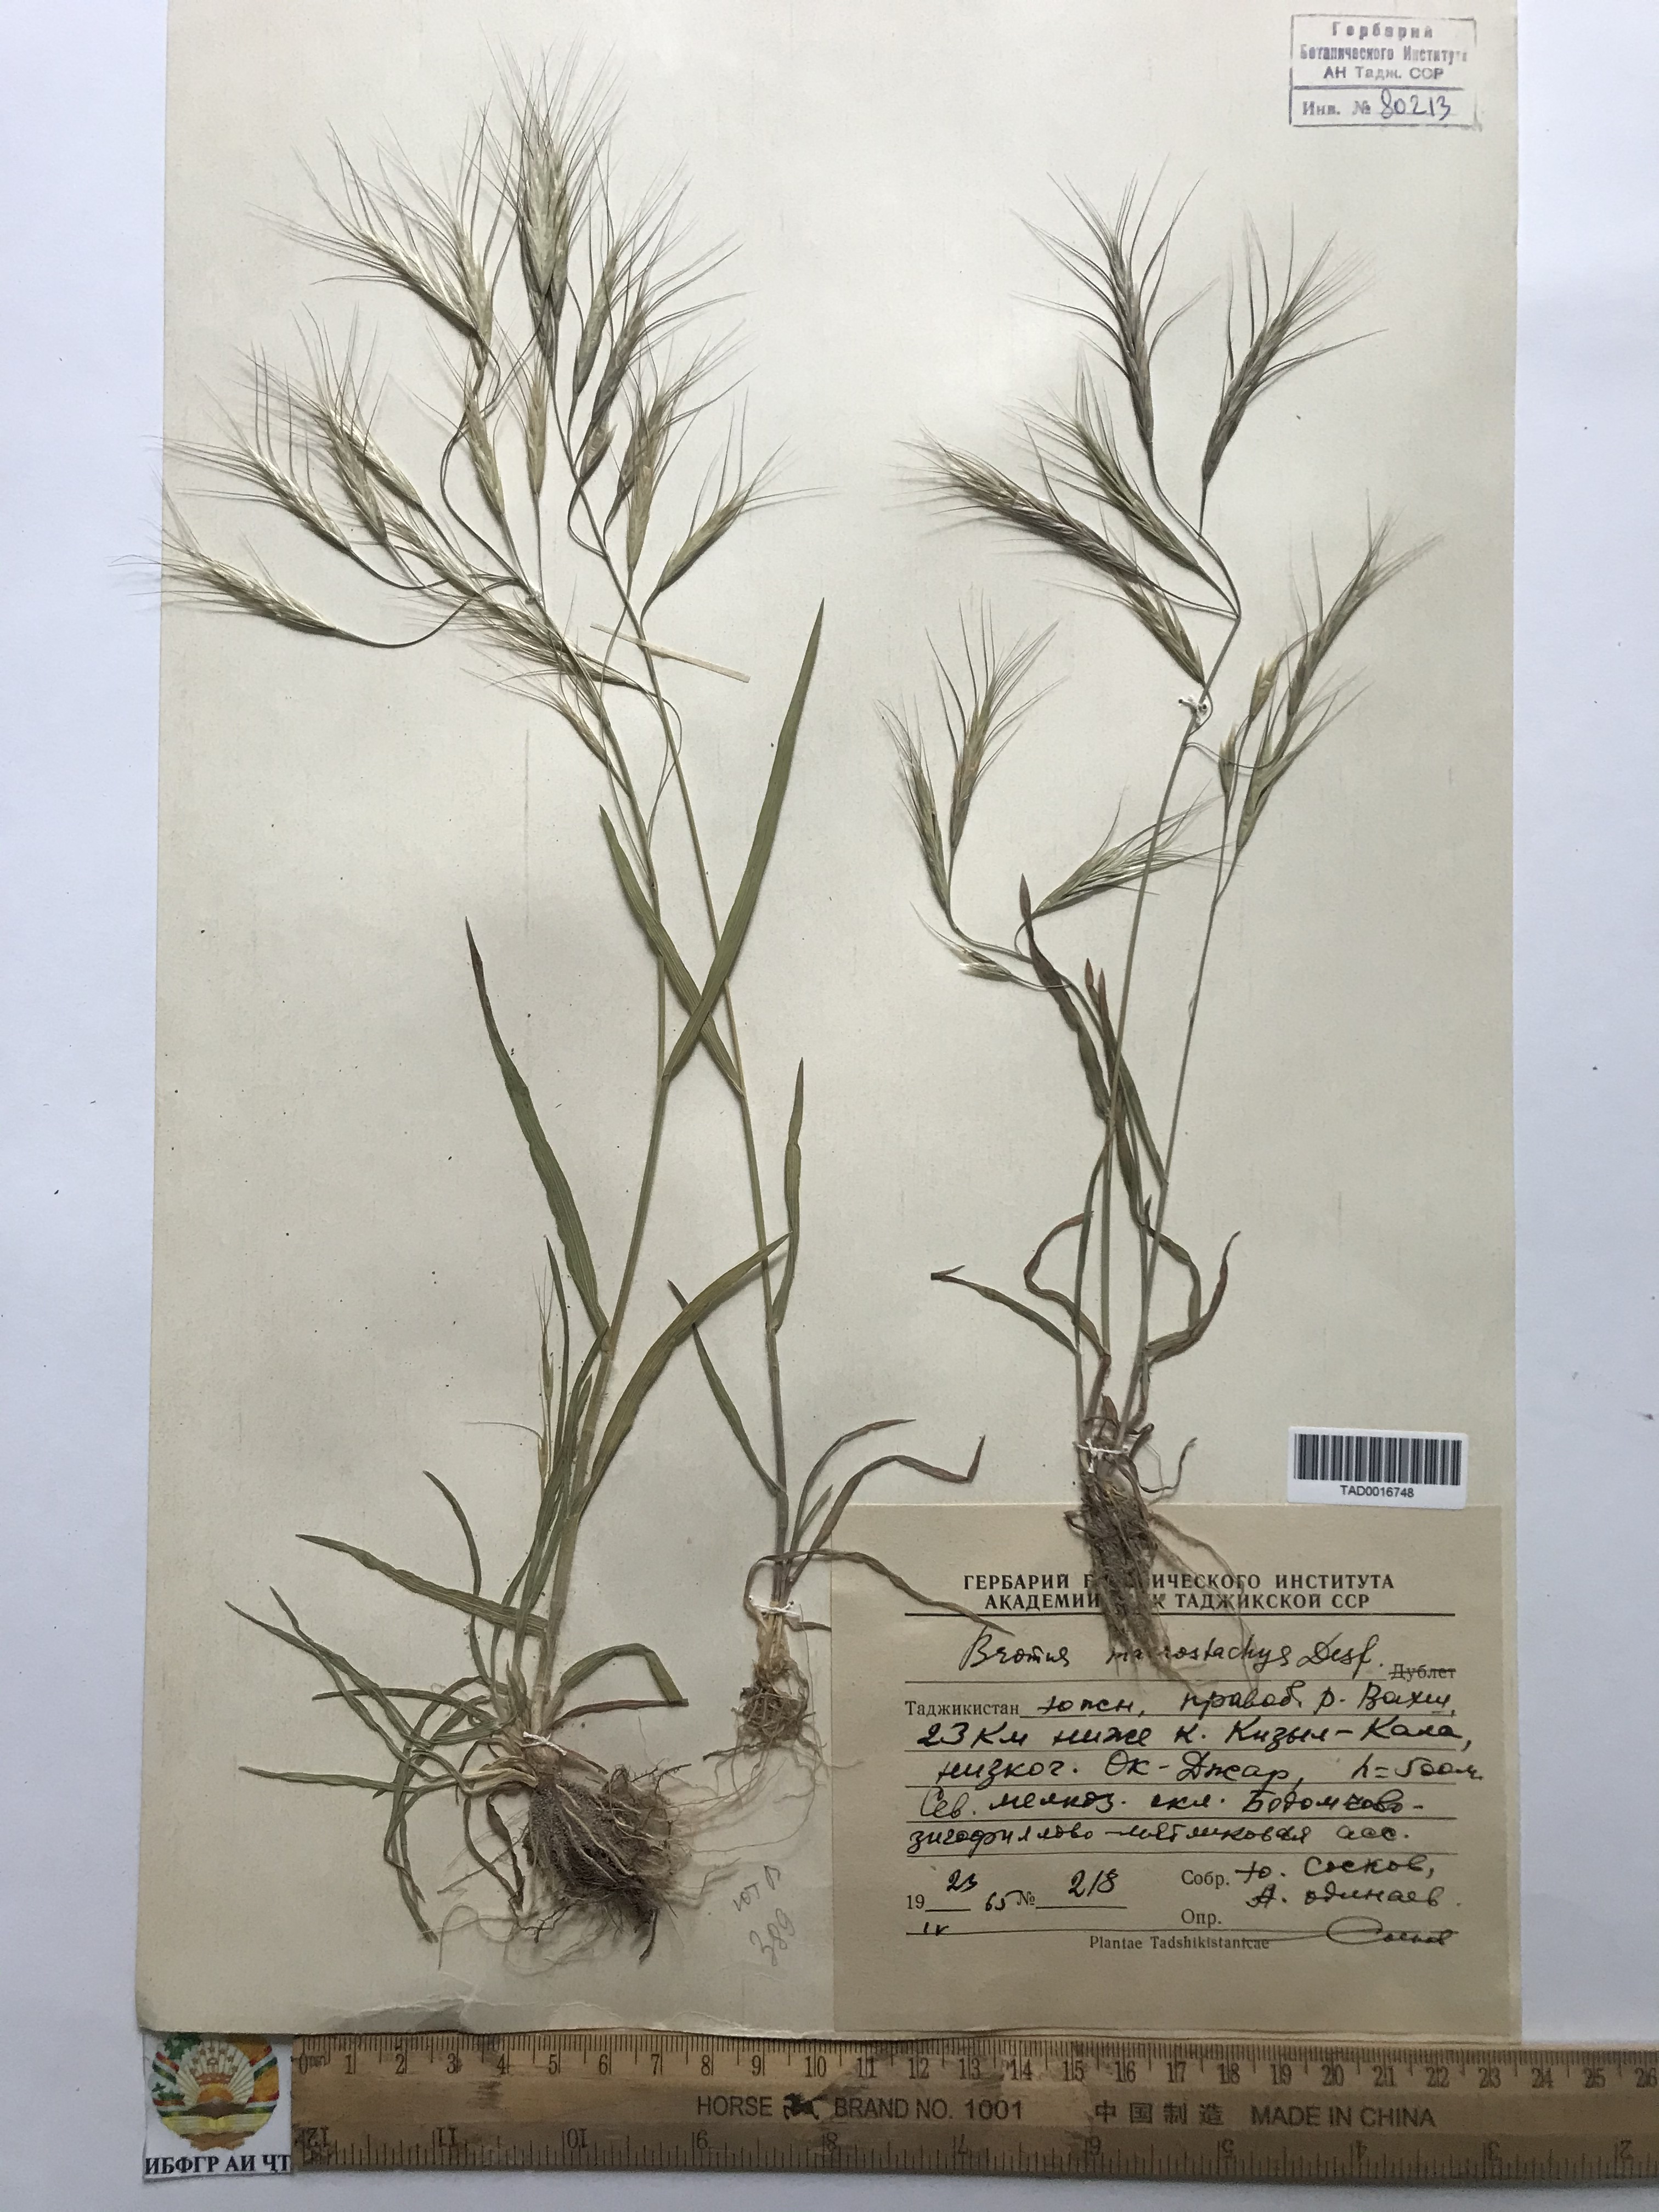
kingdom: Plantae
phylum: Tracheophyta
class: Liliopsida
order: Poales
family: Poaceae
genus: Bromus
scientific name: Bromus lanceolatus
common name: Mediterranean brome
